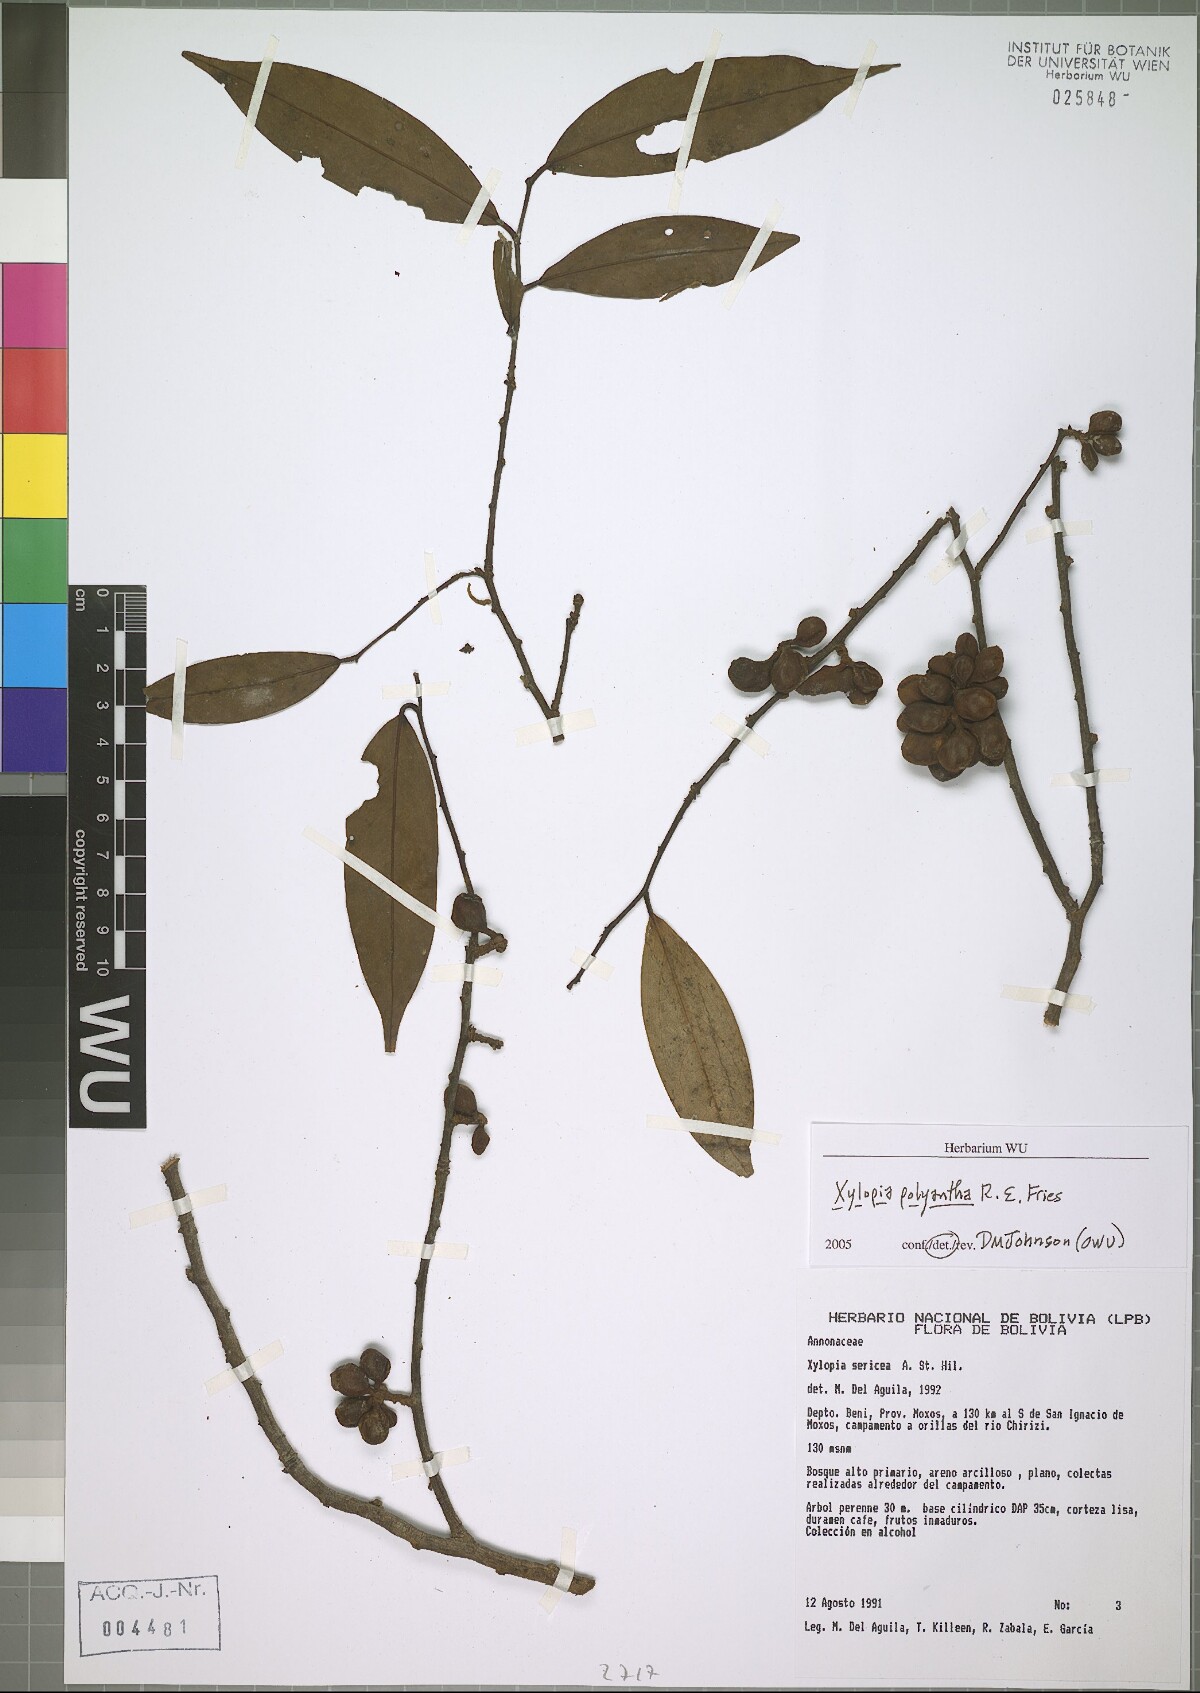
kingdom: Plantae
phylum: Tracheophyta
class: Magnoliopsida
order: Magnoliales
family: Annonaceae
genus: Xylopia
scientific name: Xylopia polyantha
